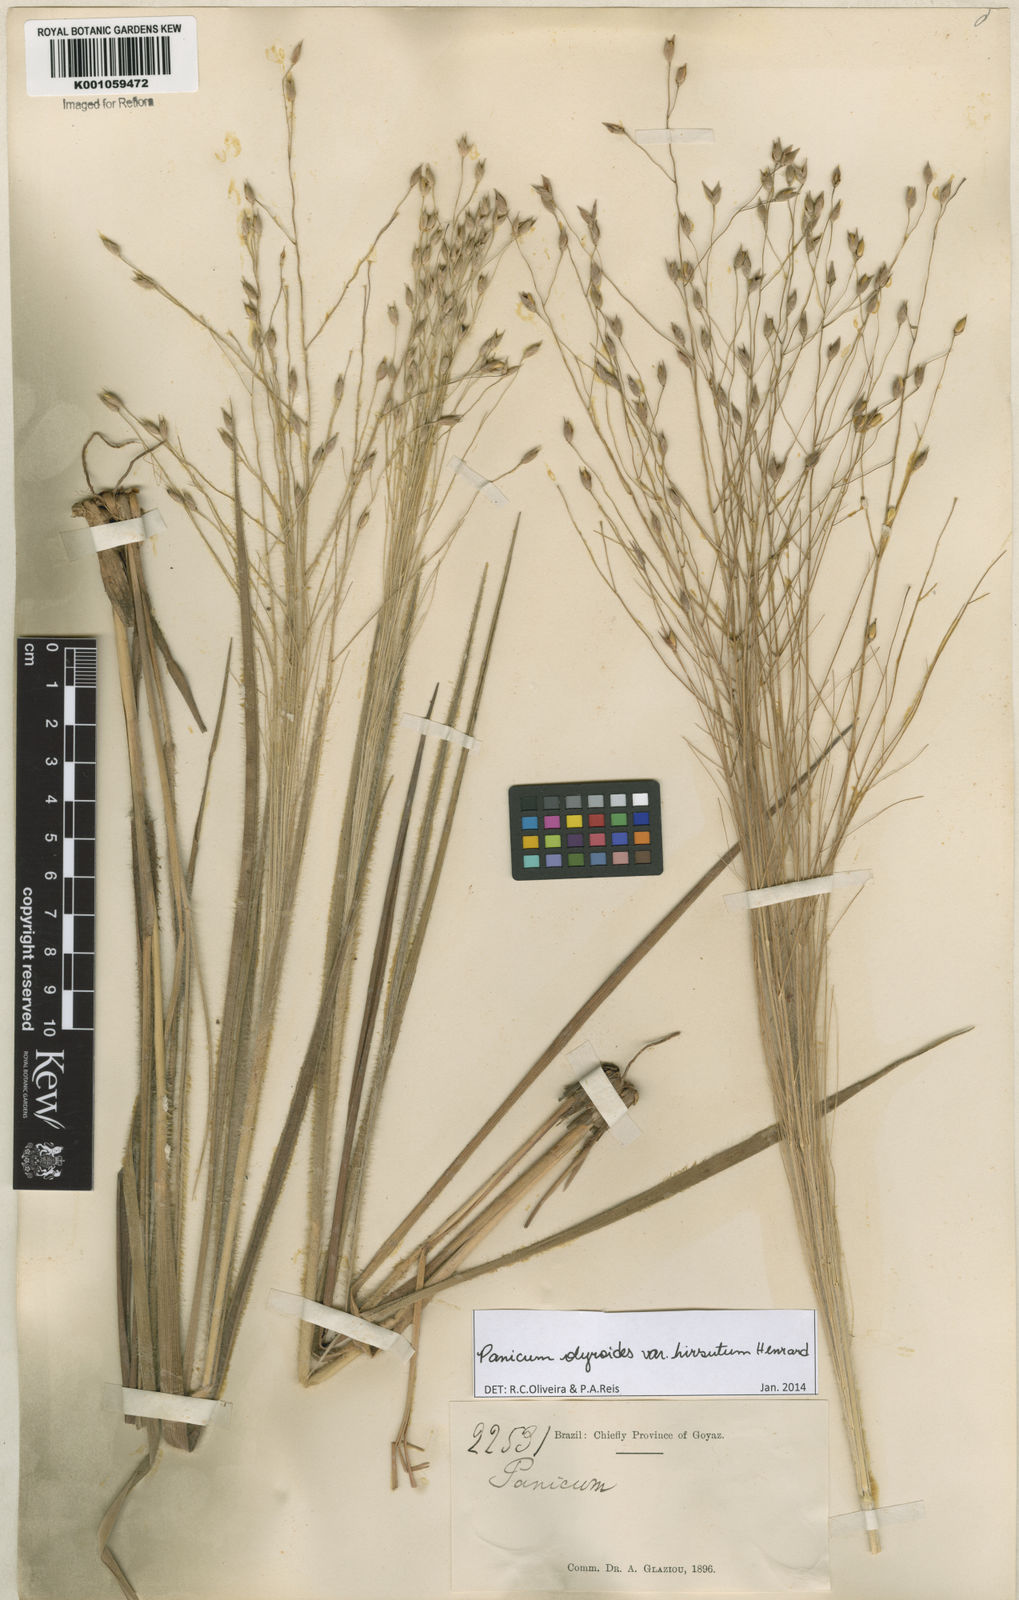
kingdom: Plantae
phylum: Tracheophyta
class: Liliopsida
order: Poales
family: Poaceae
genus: Panicum
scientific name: Panicum olyroides
